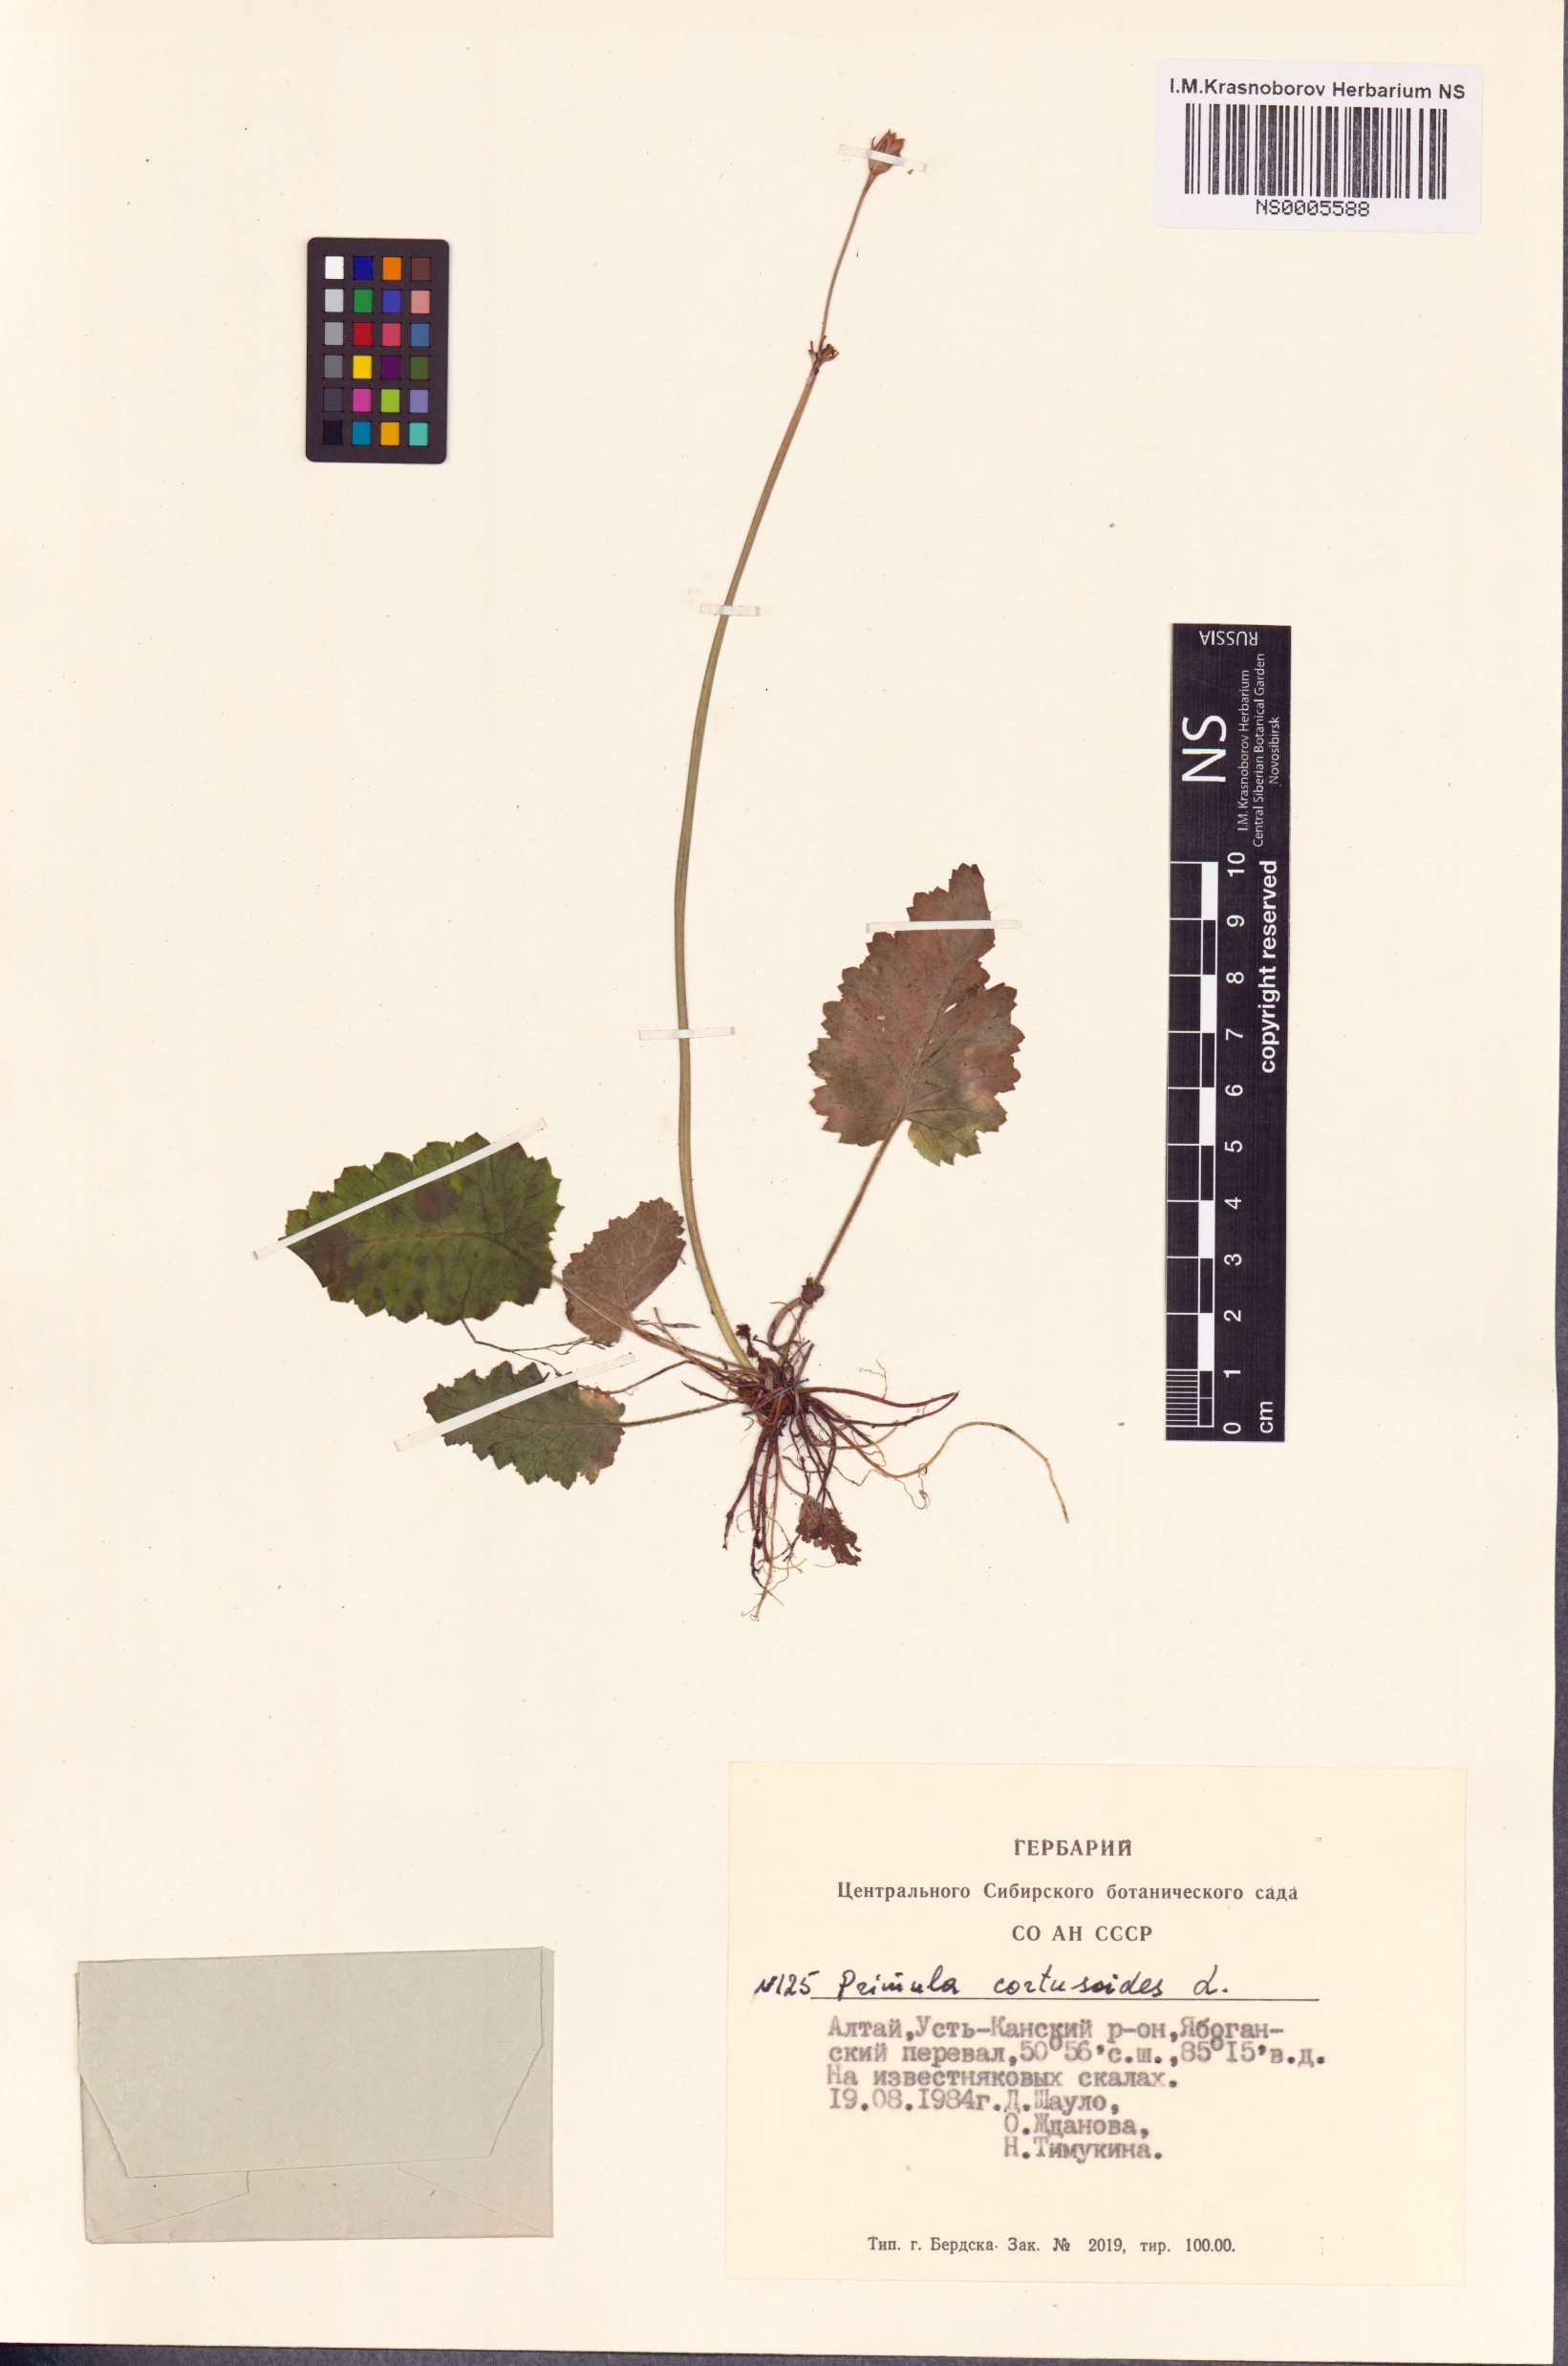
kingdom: Plantae
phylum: Tracheophyta
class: Magnoliopsida
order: Ericales
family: Primulaceae
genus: Primula
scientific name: Primula cortusoides
